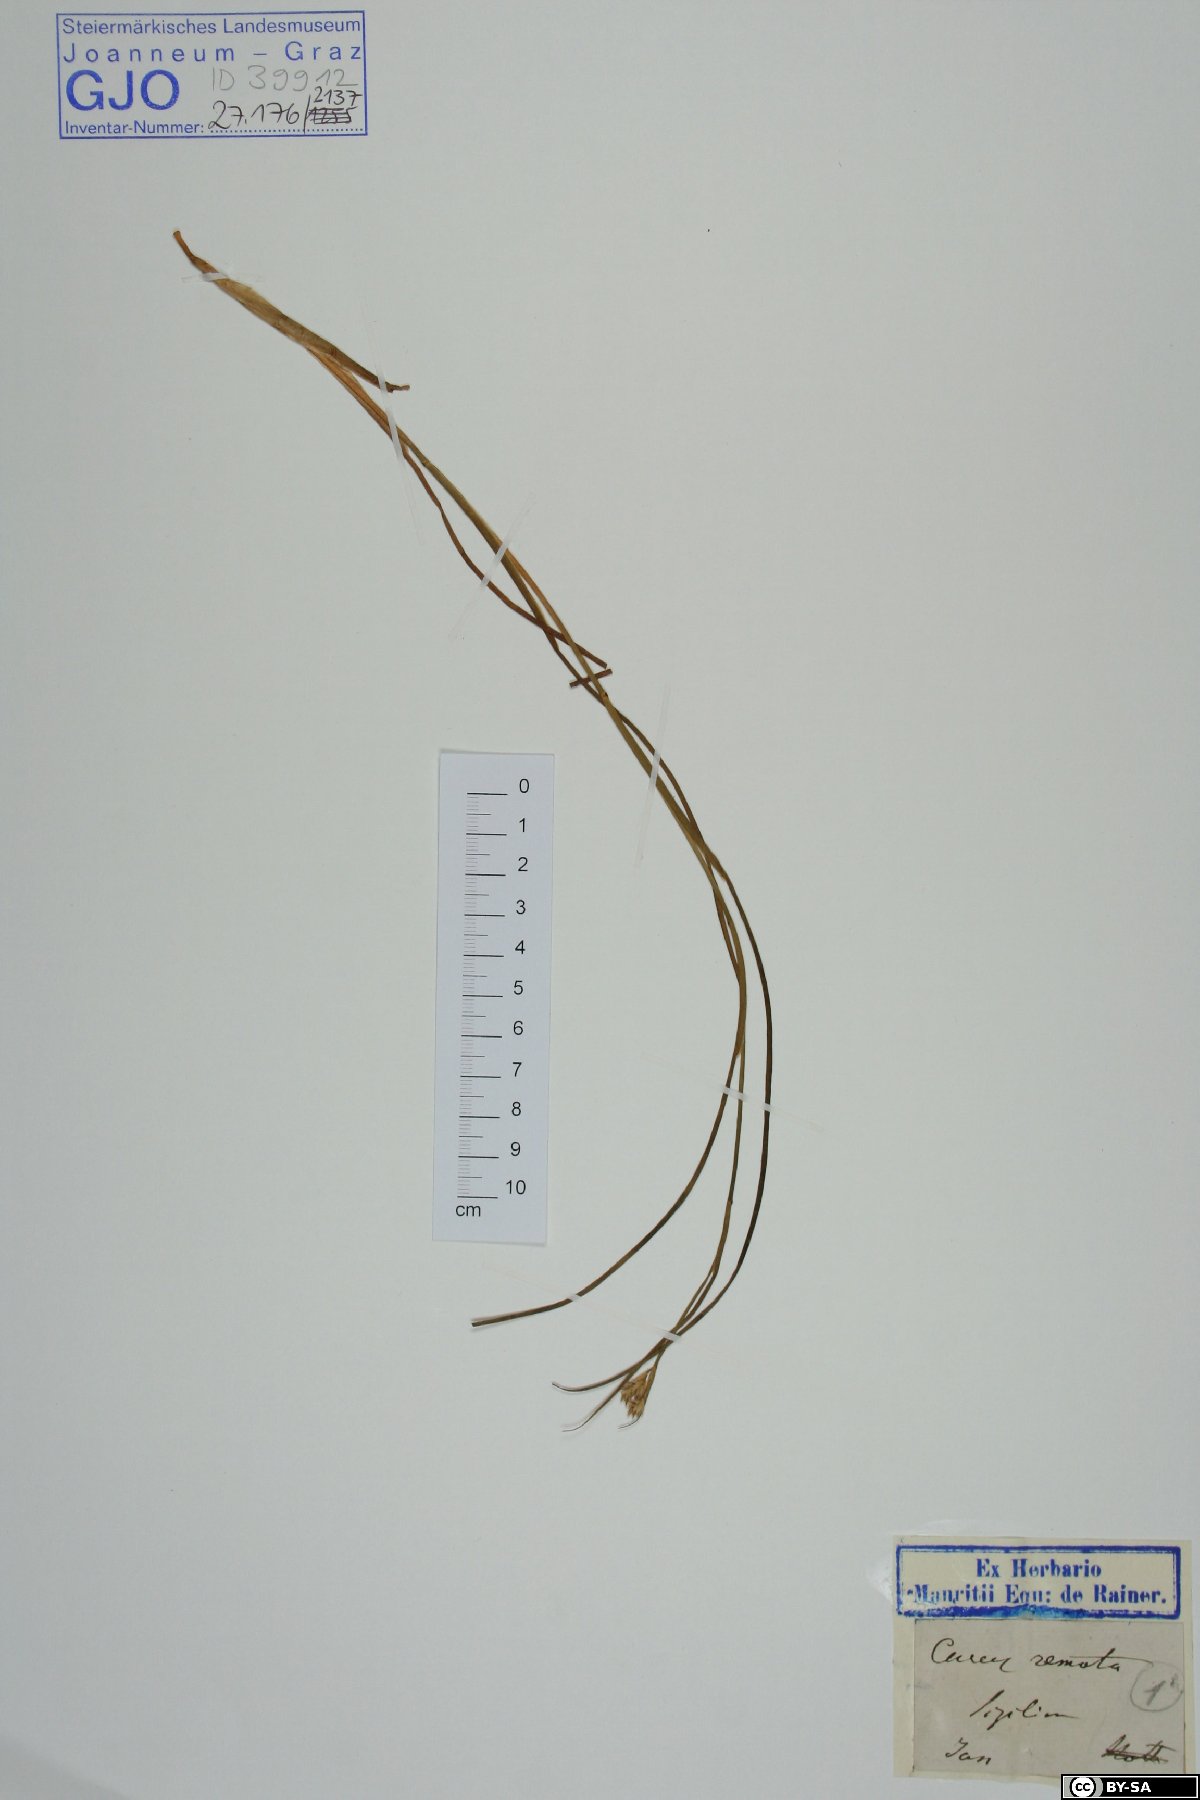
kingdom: Plantae
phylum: Tracheophyta
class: Liliopsida
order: Poales
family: Cyperaceae
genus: Carex
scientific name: Carex remota
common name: Remote sedge
